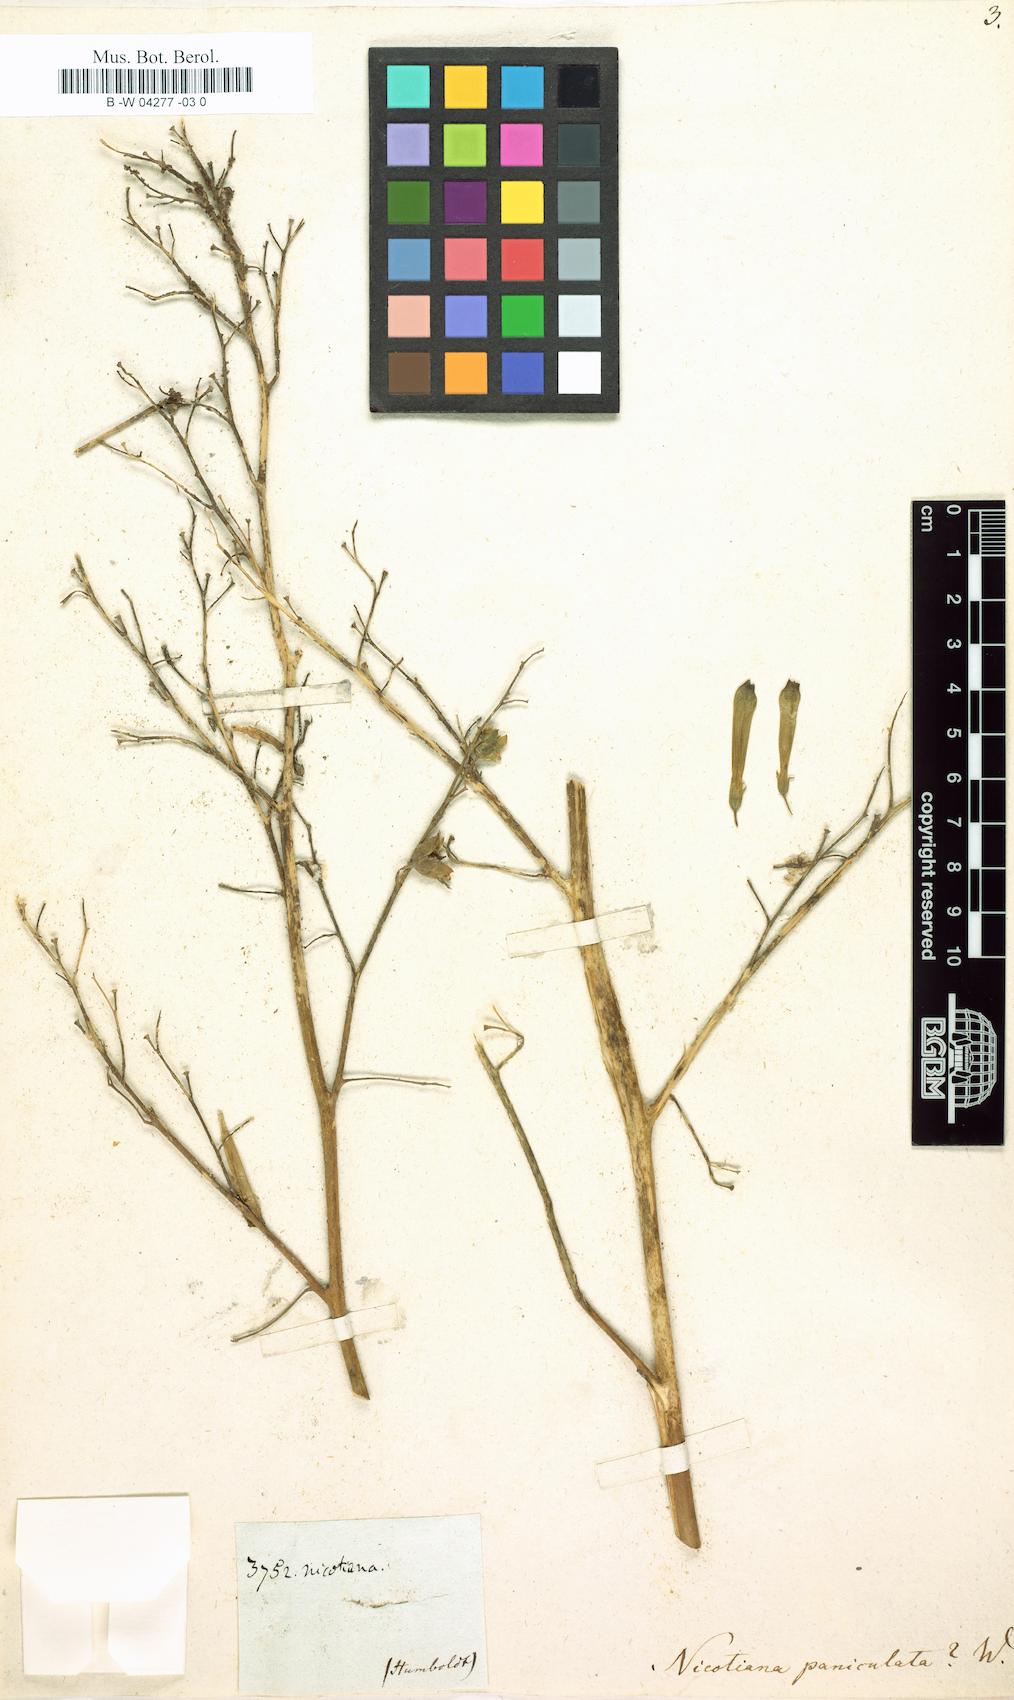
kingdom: Plantae
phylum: Tracheophyta
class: Magnoliopsida
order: Solanales
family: Solanaceae
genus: Nicotiana
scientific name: Nicotiana paniculata
